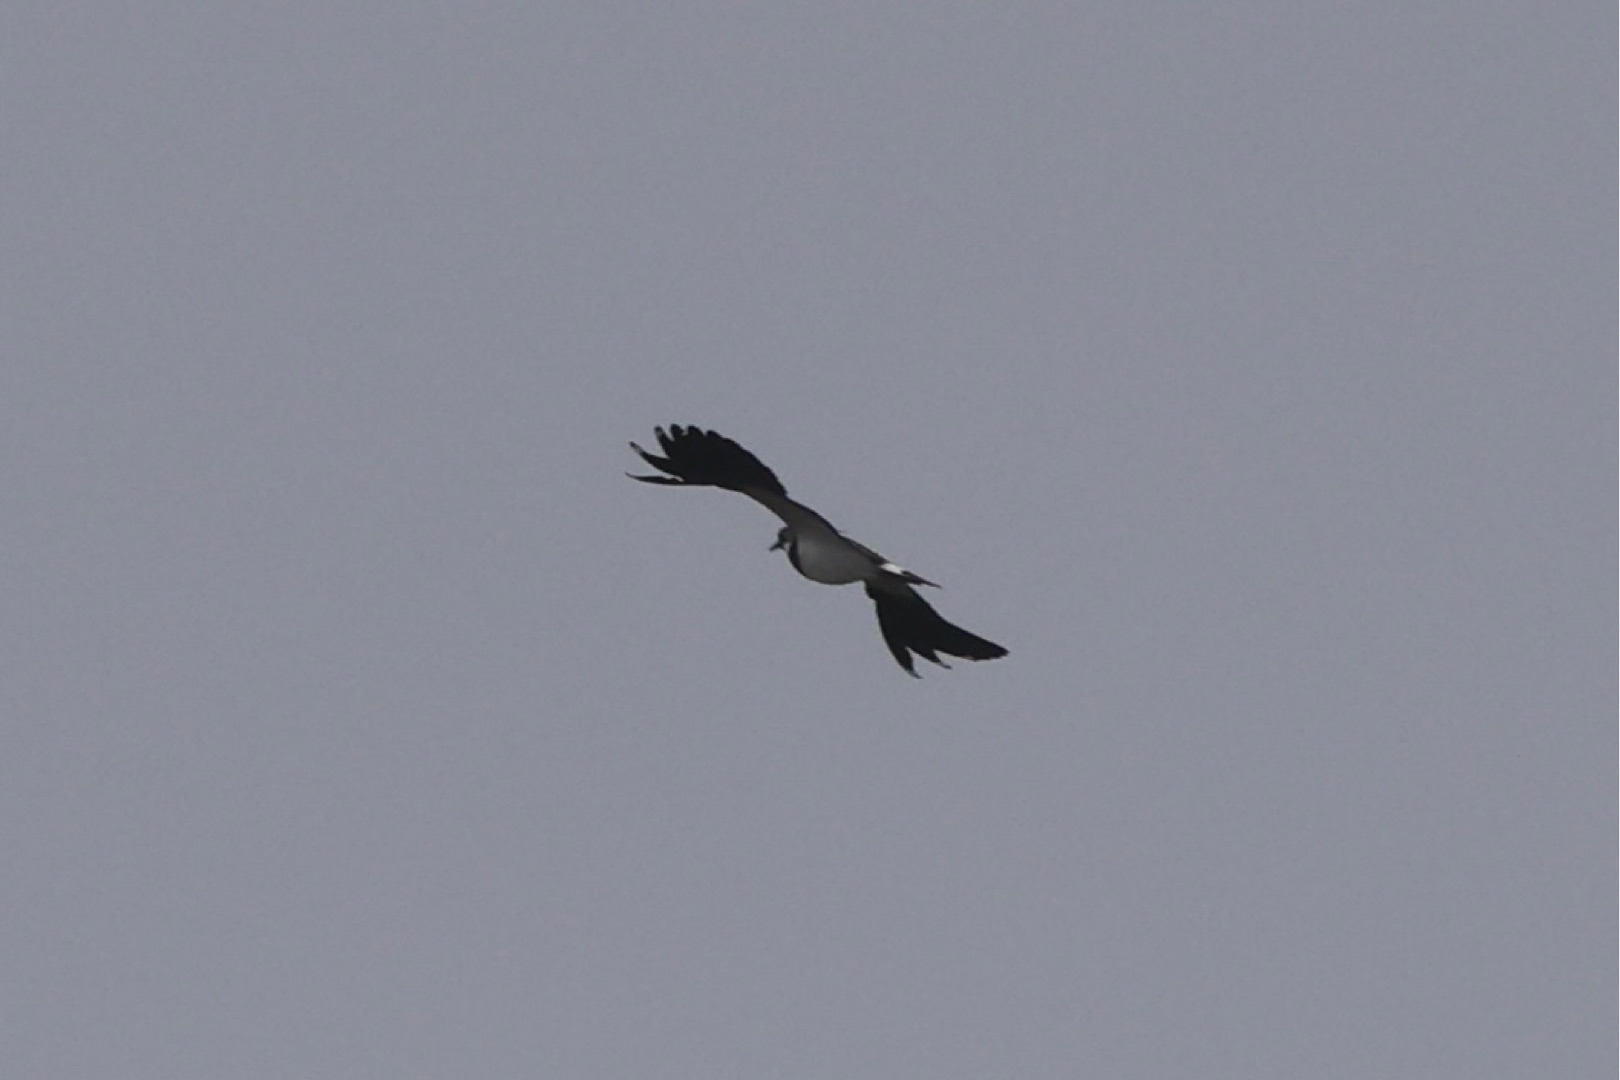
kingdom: Animalia
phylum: Chordata
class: Aves
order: Charadriiformes
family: Charadriidae
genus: Vanellus
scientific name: Vanellus vanellus
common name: Vibe
